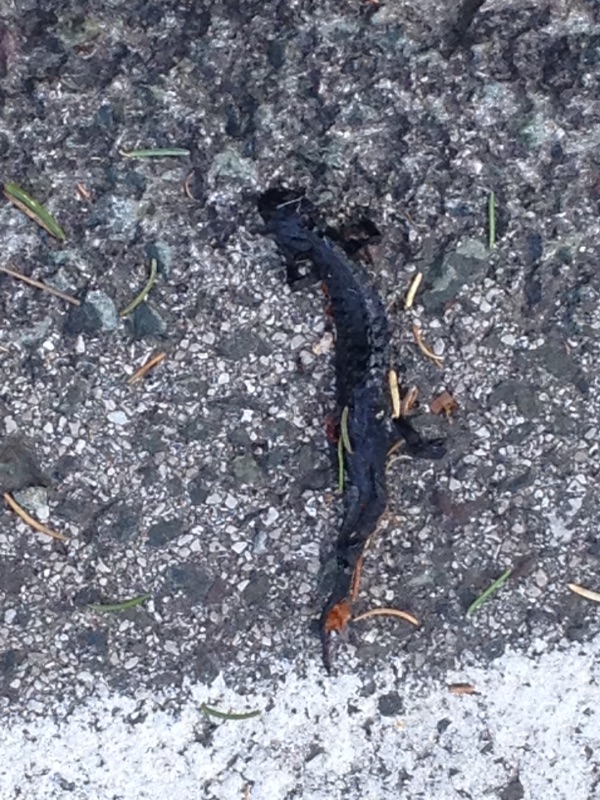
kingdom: Animalia
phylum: Chordata
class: Amphibia
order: Caudata
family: Salamandridae
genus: Salamandra
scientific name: Salamandra atra
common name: Alpine salamander
